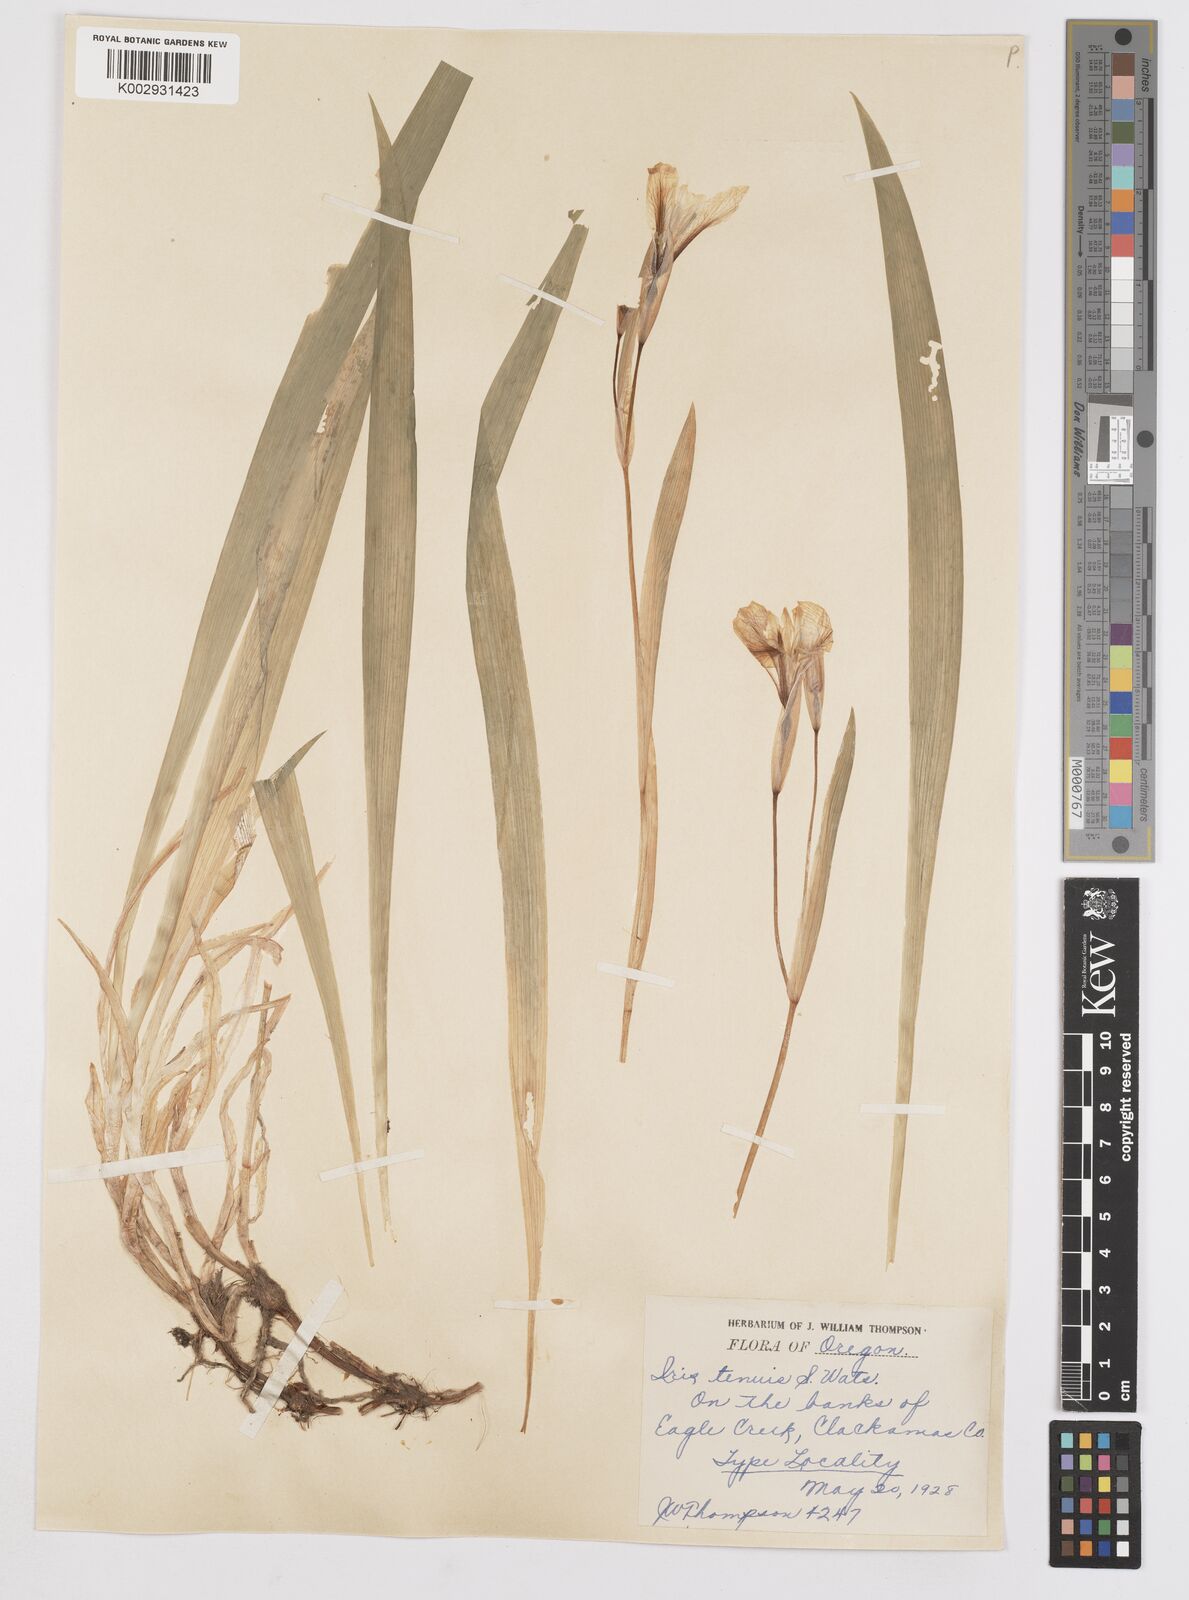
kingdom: Plantae
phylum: Tracheophyta
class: Liliopsida
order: Asparagales
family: Iridaceae
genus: Iris
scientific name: Iris tenuis
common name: Clackamas iris
